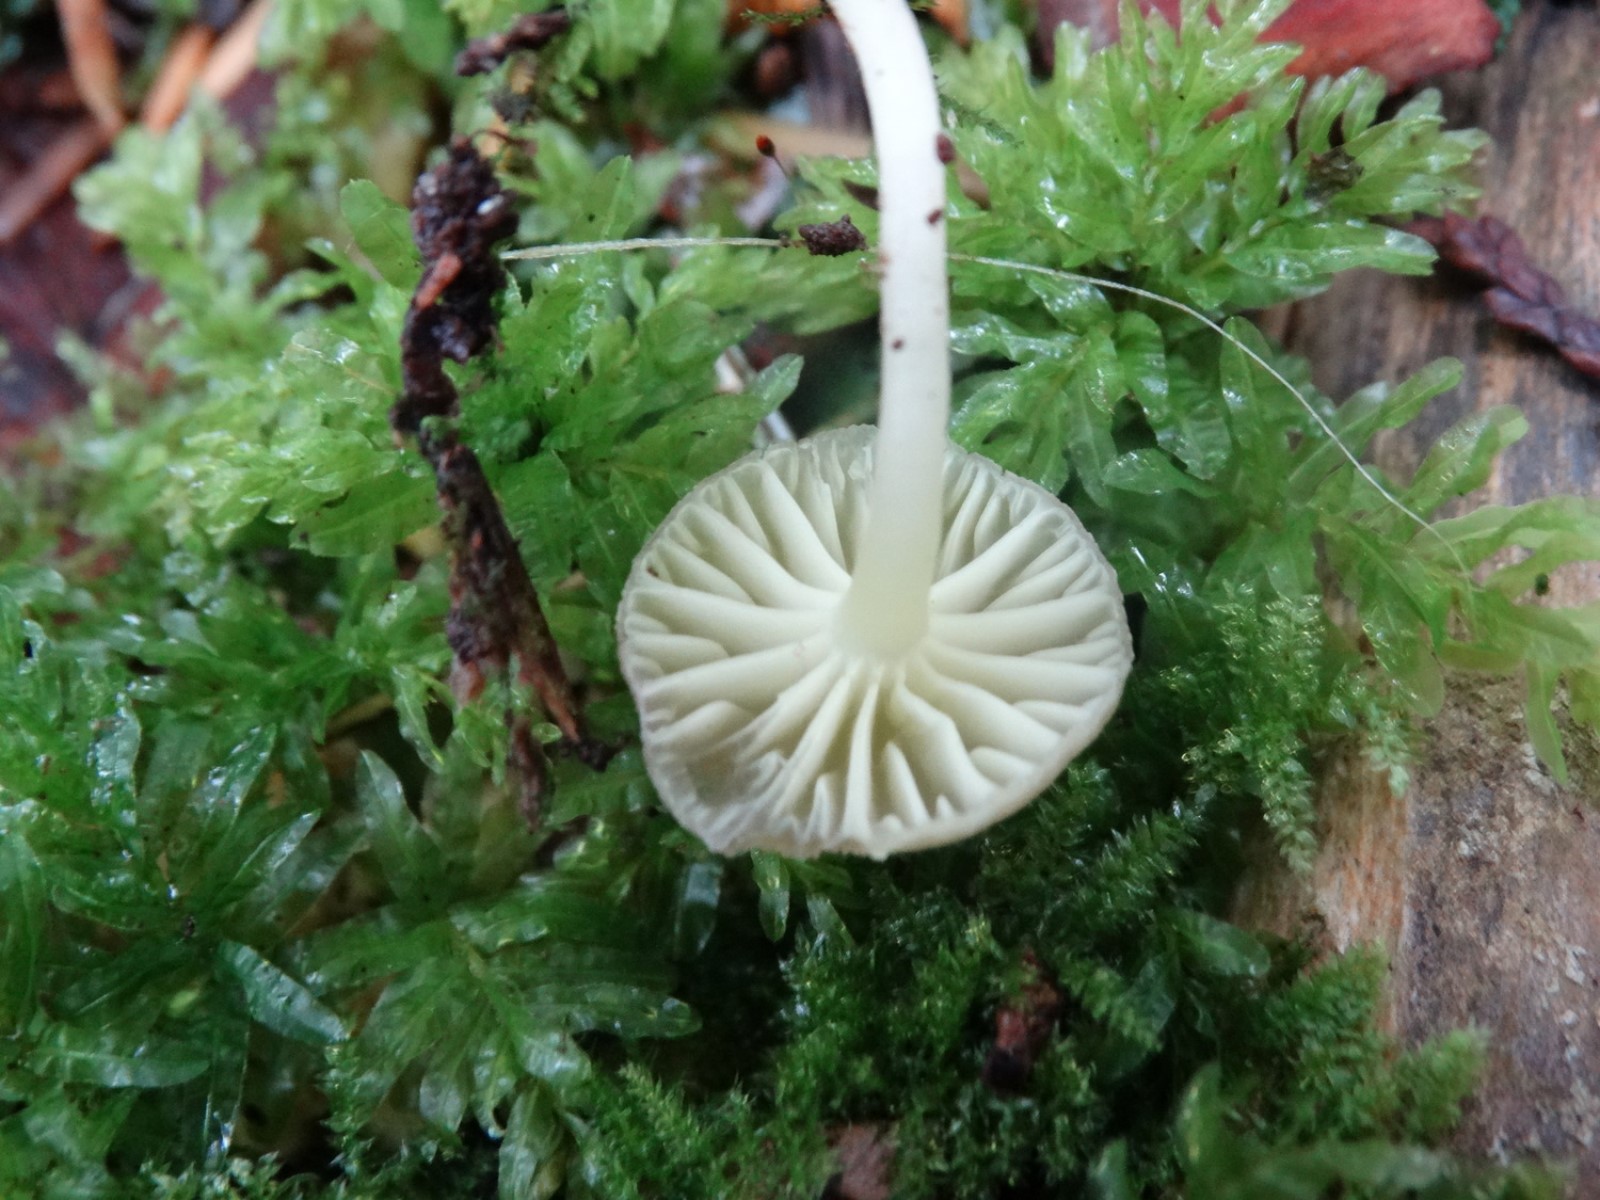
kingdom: Fungi
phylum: Basidiomycota
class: Agaricomycetes
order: Agaricales
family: Hygrophoraceae
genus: Chrysomphalina
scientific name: Chrysomphalina grossula
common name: stød-gyldenblad
